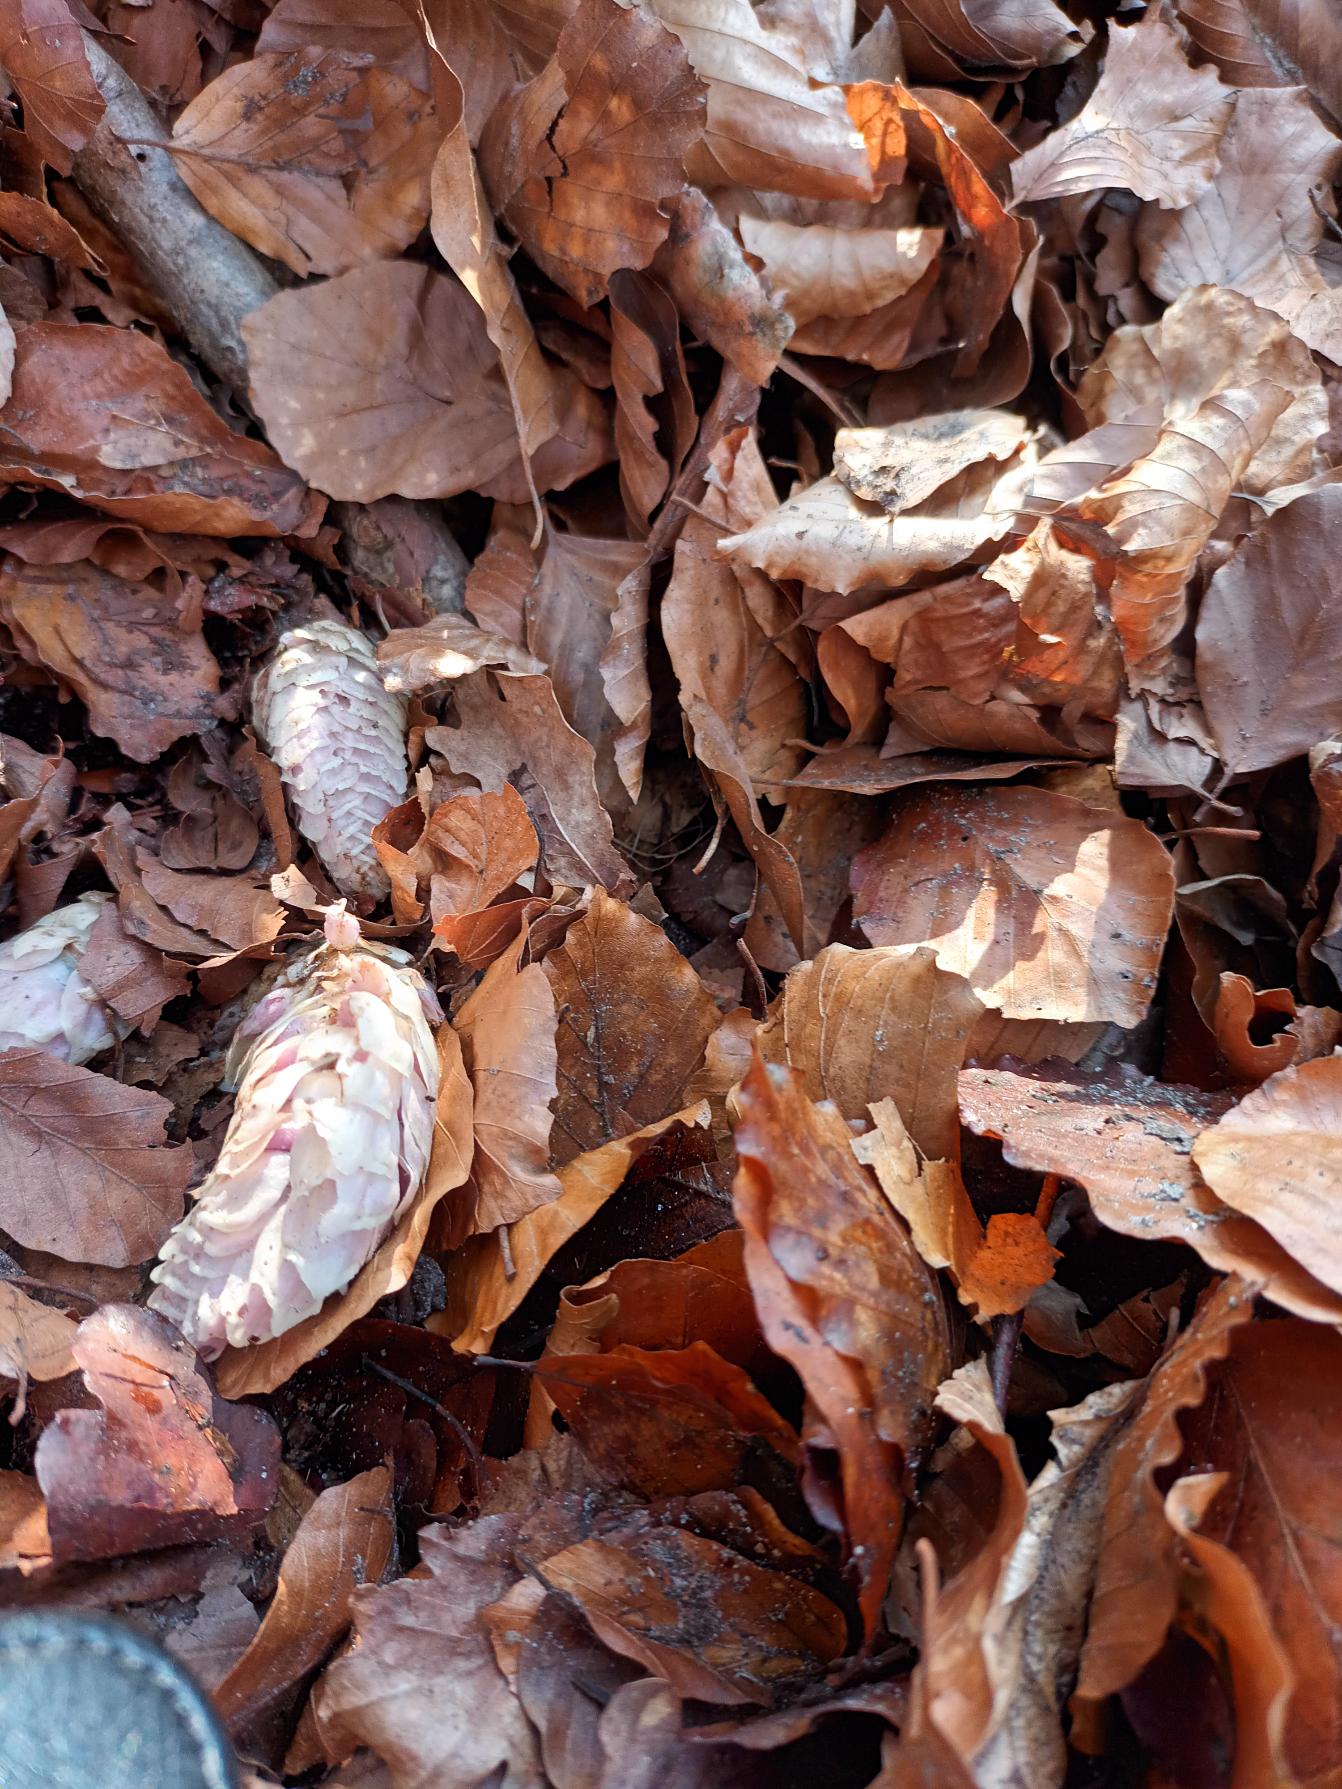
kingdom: Plantae
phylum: Tracheophyta
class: Magnoliopsida
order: Lamiales
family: Orobanchaceae
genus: Lathraea
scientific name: Lathraea squamaria
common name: Skælrod
